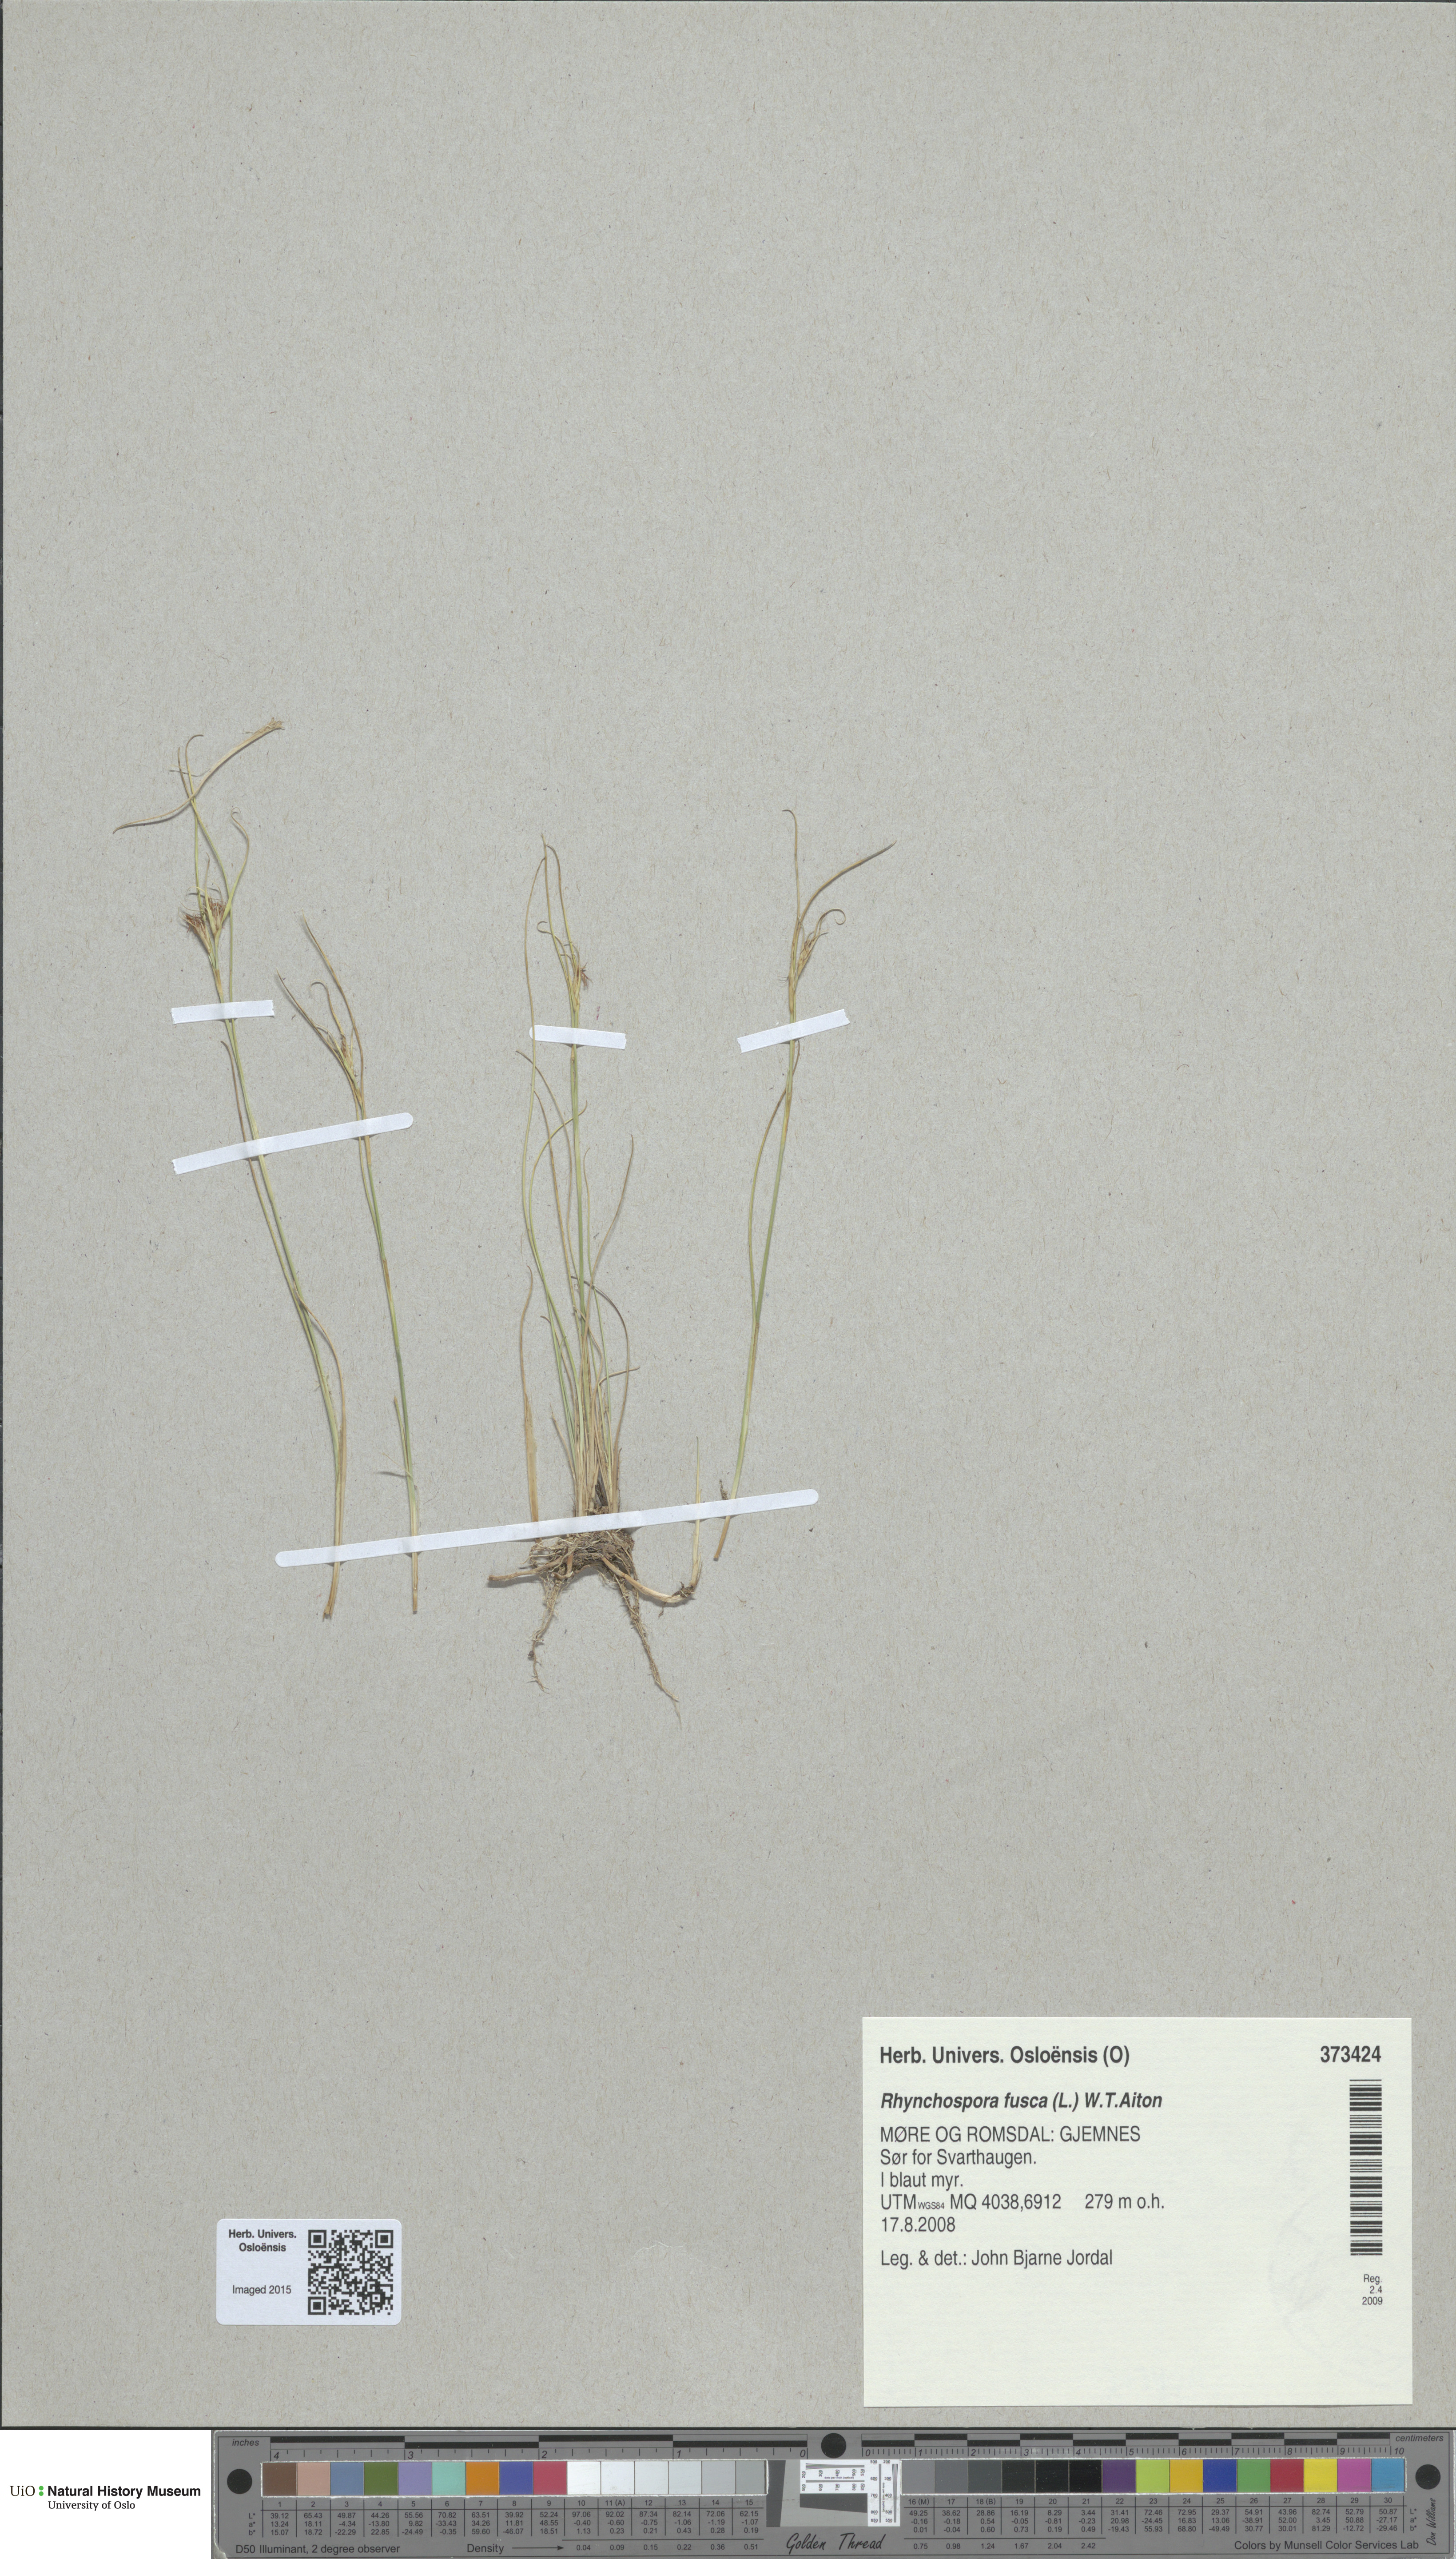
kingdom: Plantae
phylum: Tracheophyta
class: Liliopsida
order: Poales
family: Cyperaceae
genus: Rhynchospora
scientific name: Rhynchospora fusca
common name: Brown beak-sedge
